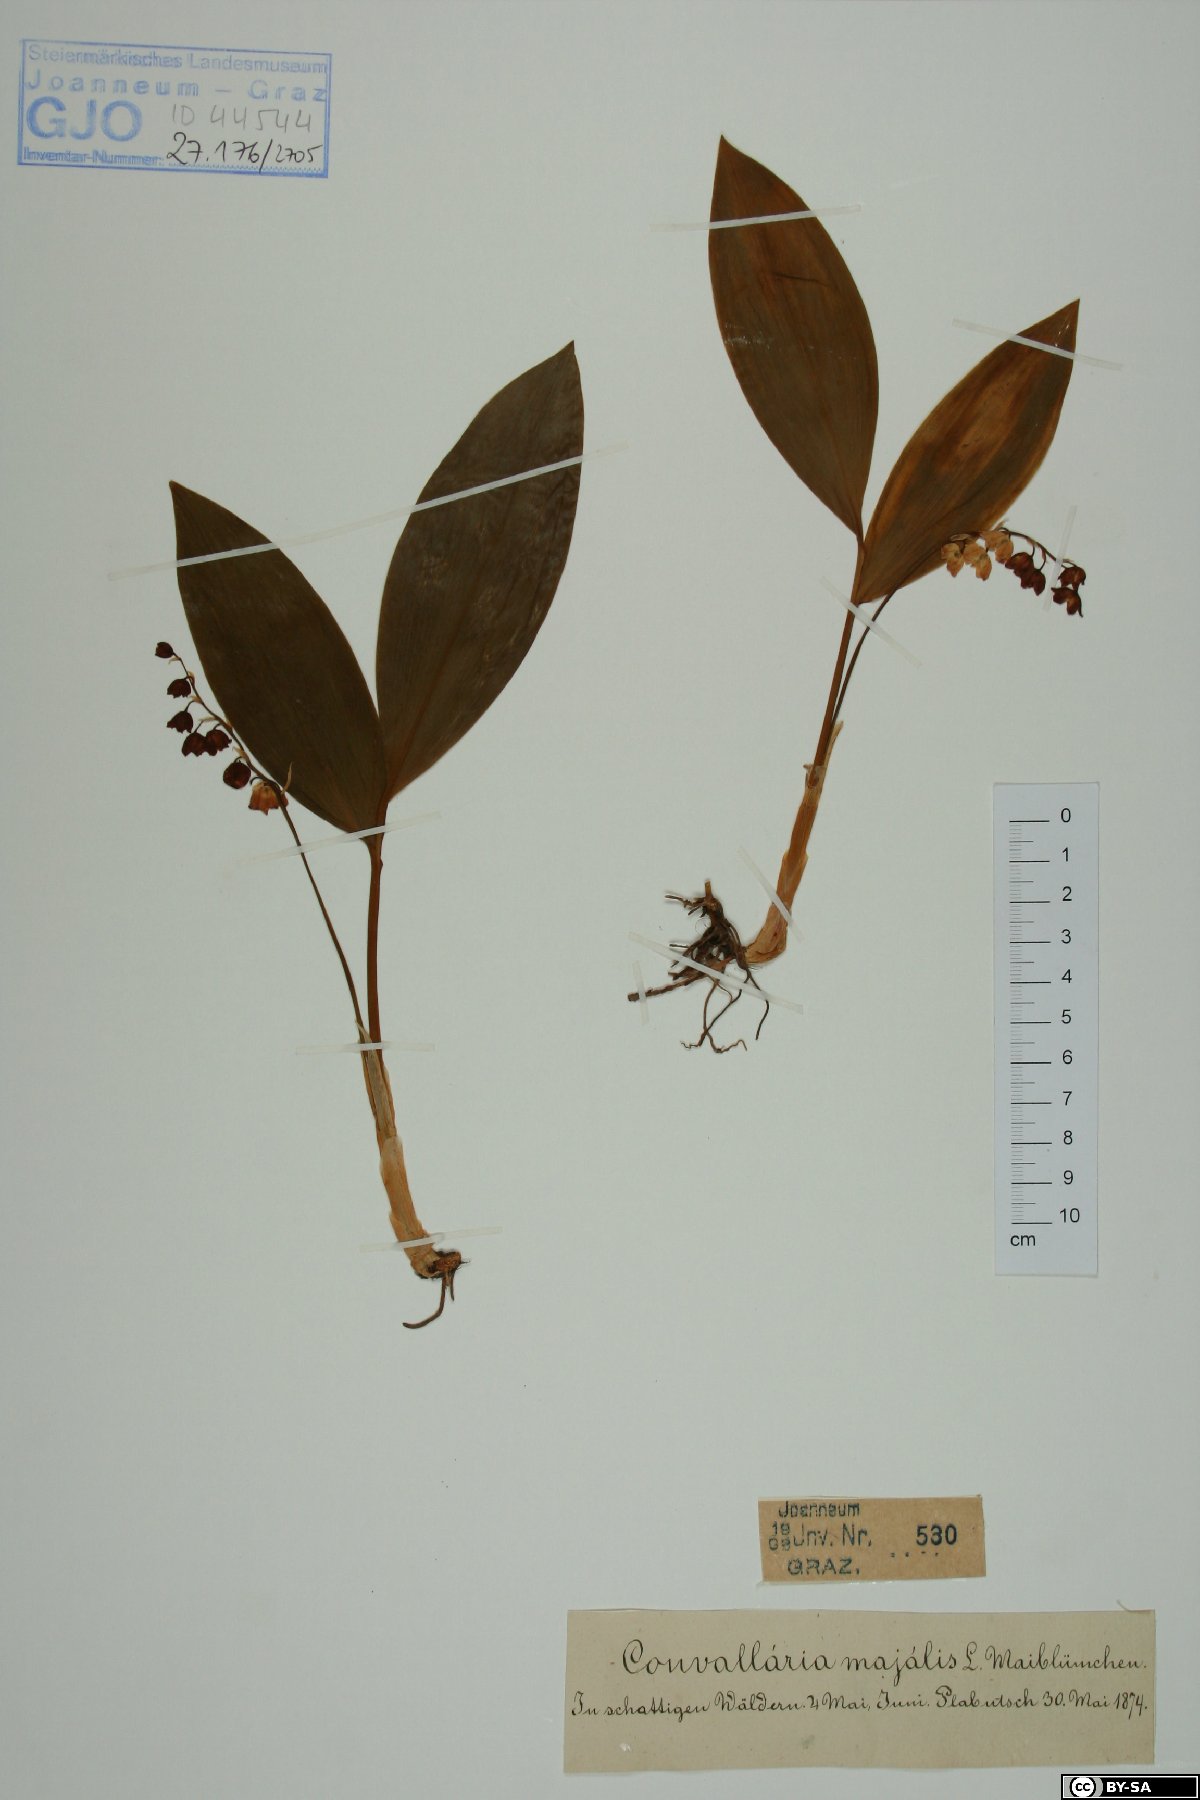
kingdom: Plantae
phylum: Tracheophyta
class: Liliopsida
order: Asparagales
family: Asparagaceae
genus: Convallaria
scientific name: Convallaria majalis
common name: Lily-of-the-valley
